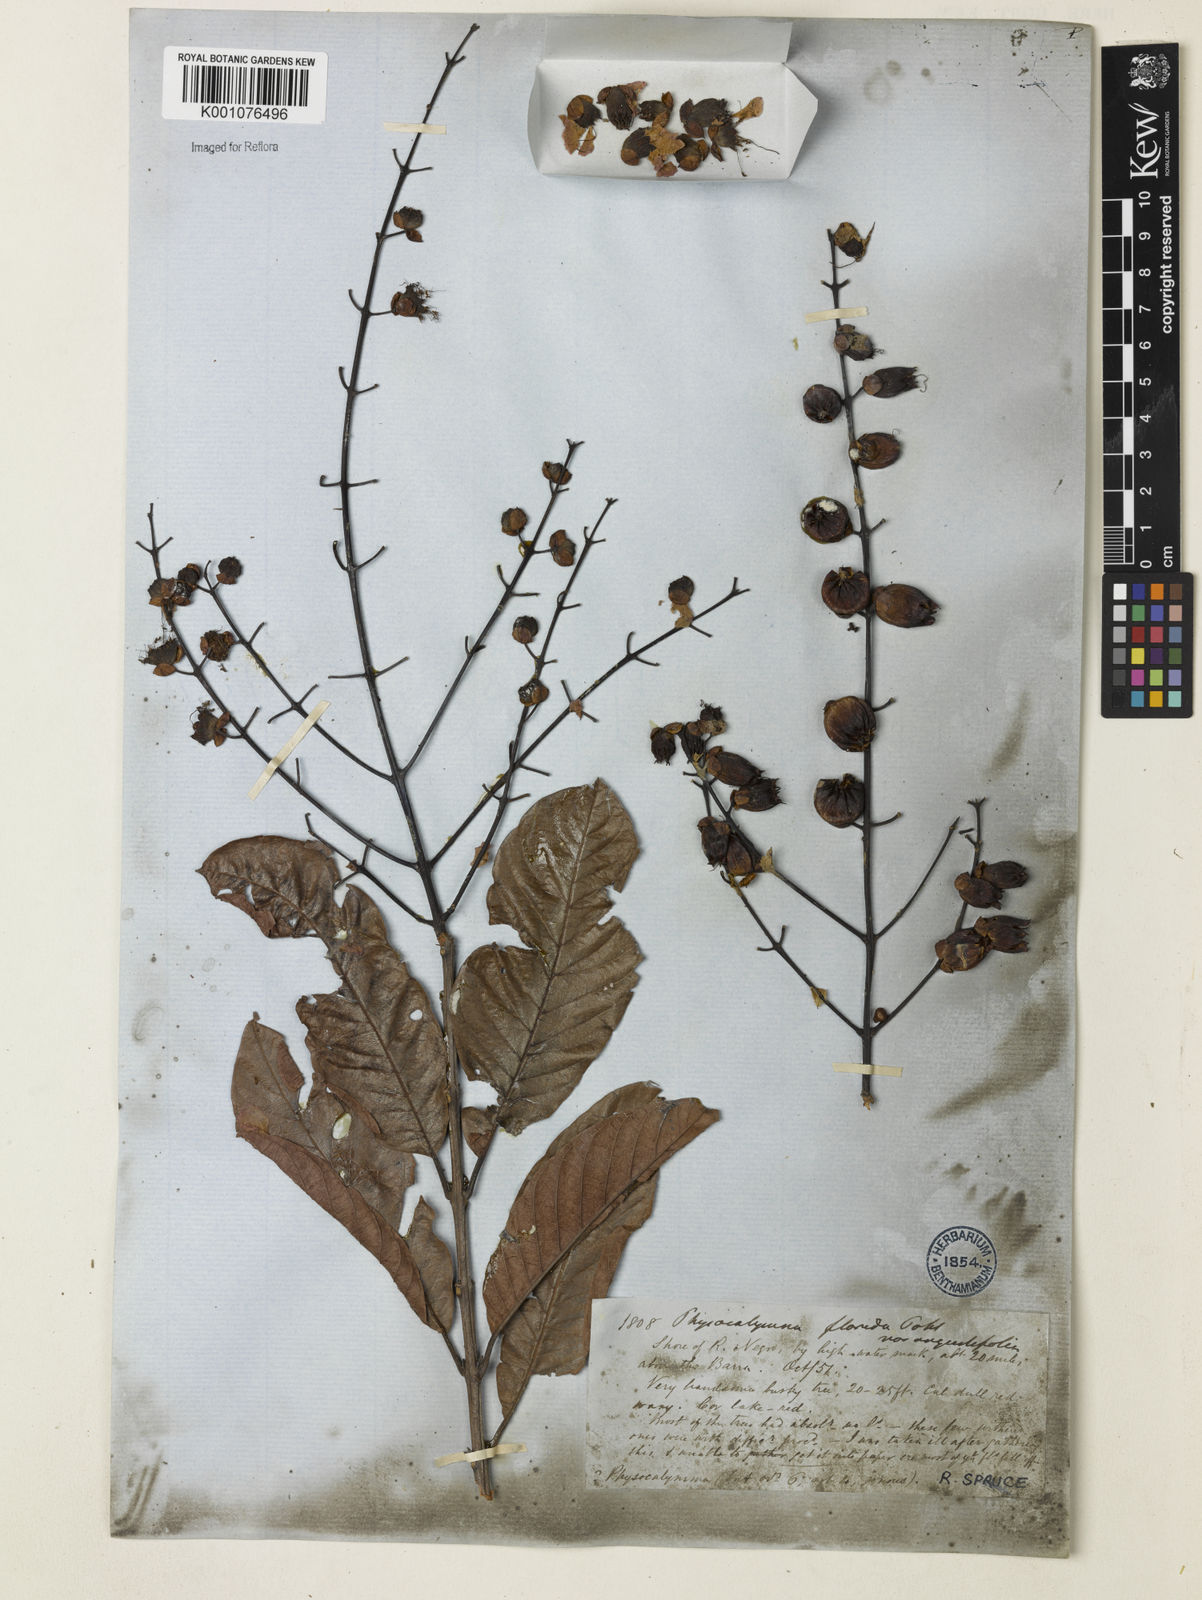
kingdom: Plantae
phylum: Tracheophyta
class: Magnoliopsida
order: Myrtales
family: Lythraceae
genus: Physocalymma
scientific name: Physocalymma scaberrimum
